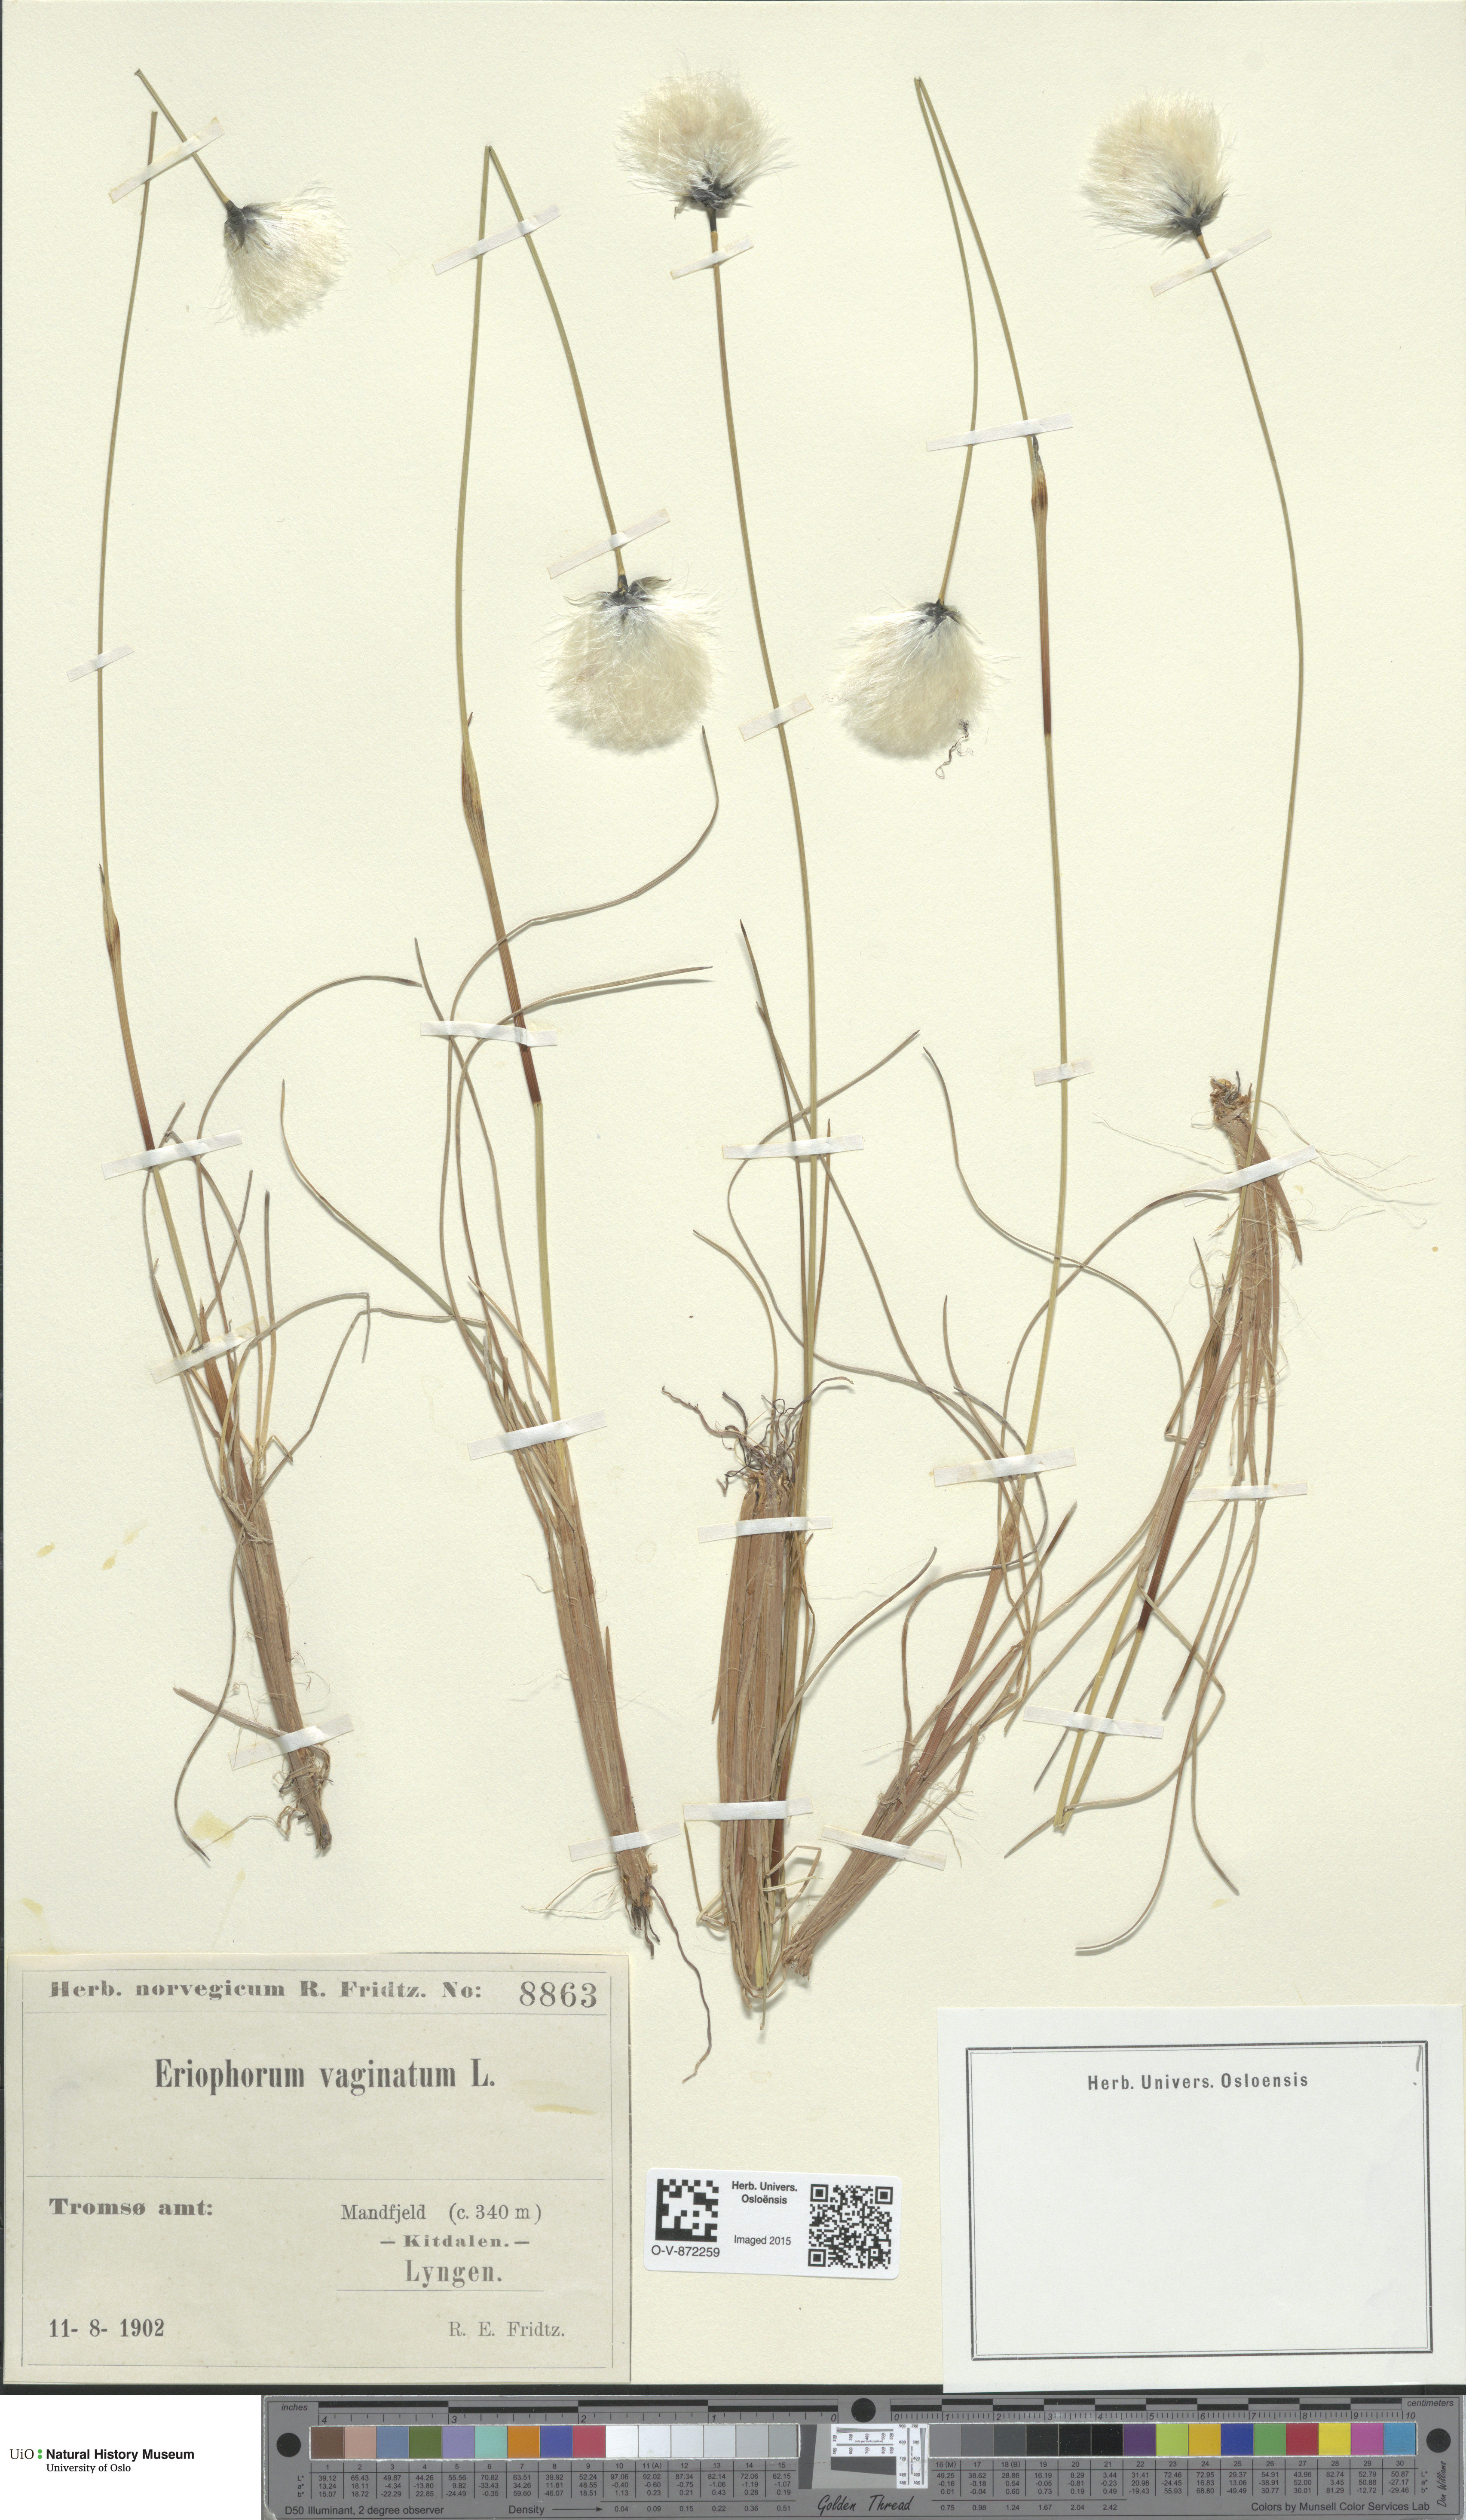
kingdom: Plantae
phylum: Tracheophyta
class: Liliopsida
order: Poales
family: Cyperaceae
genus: Eriophorum
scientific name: Eriophorum vaginatum
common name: Hare's-tail cottongrass
